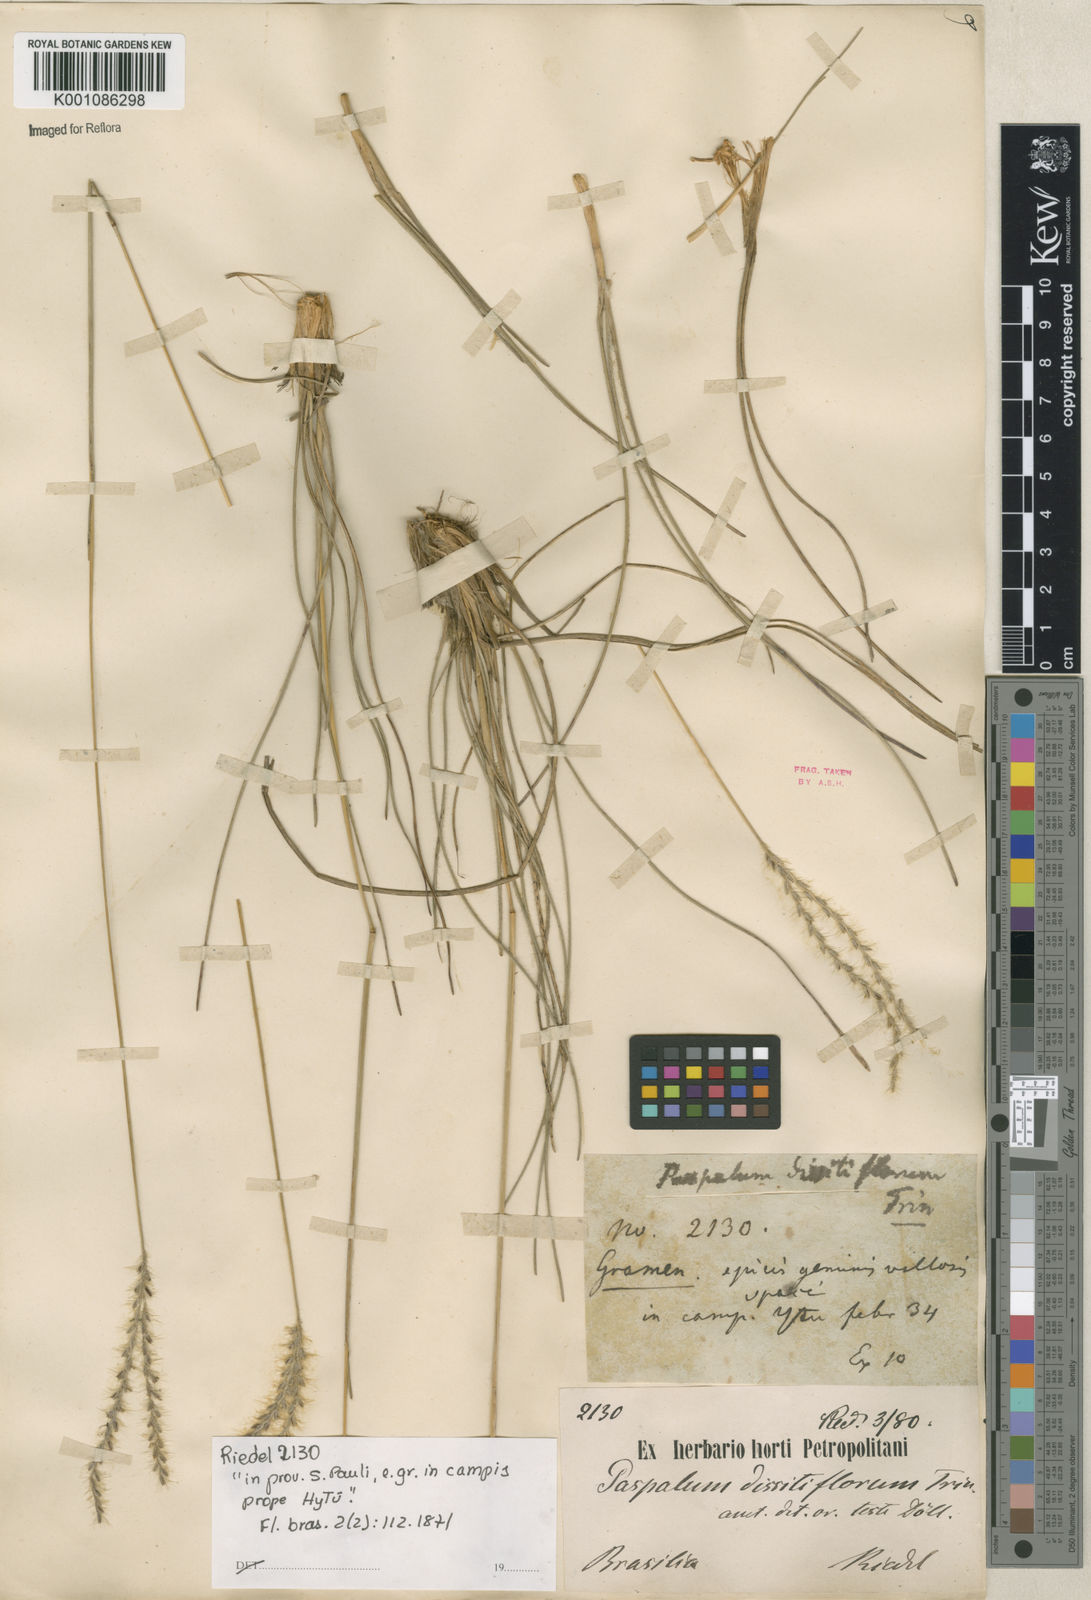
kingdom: Plantae
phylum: Tracheophyta
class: Liliopsida
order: Poales
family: Poaceae
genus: Axonopus
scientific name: Axonopus brasiliensis
